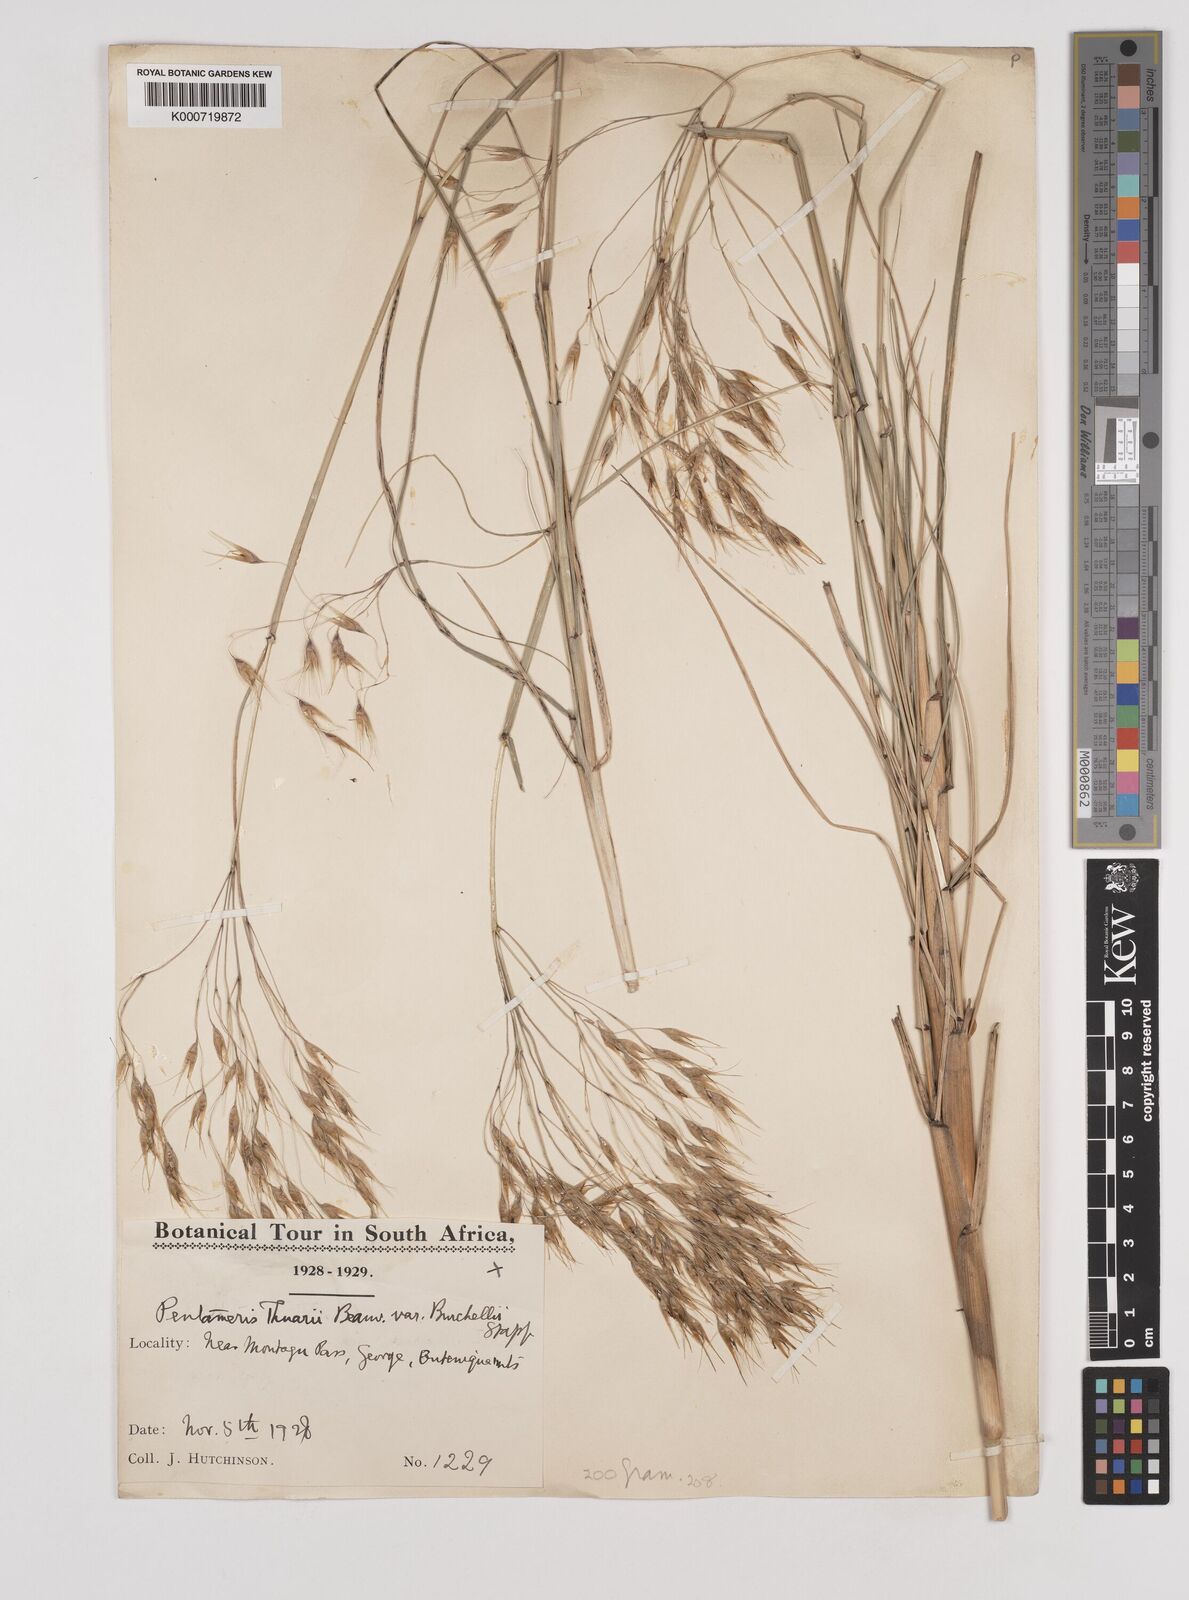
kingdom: Plantae
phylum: Tracheophyta
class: Liliopsida
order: Poales
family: Poaceae
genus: Pentameris
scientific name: Pentameris thuarii
